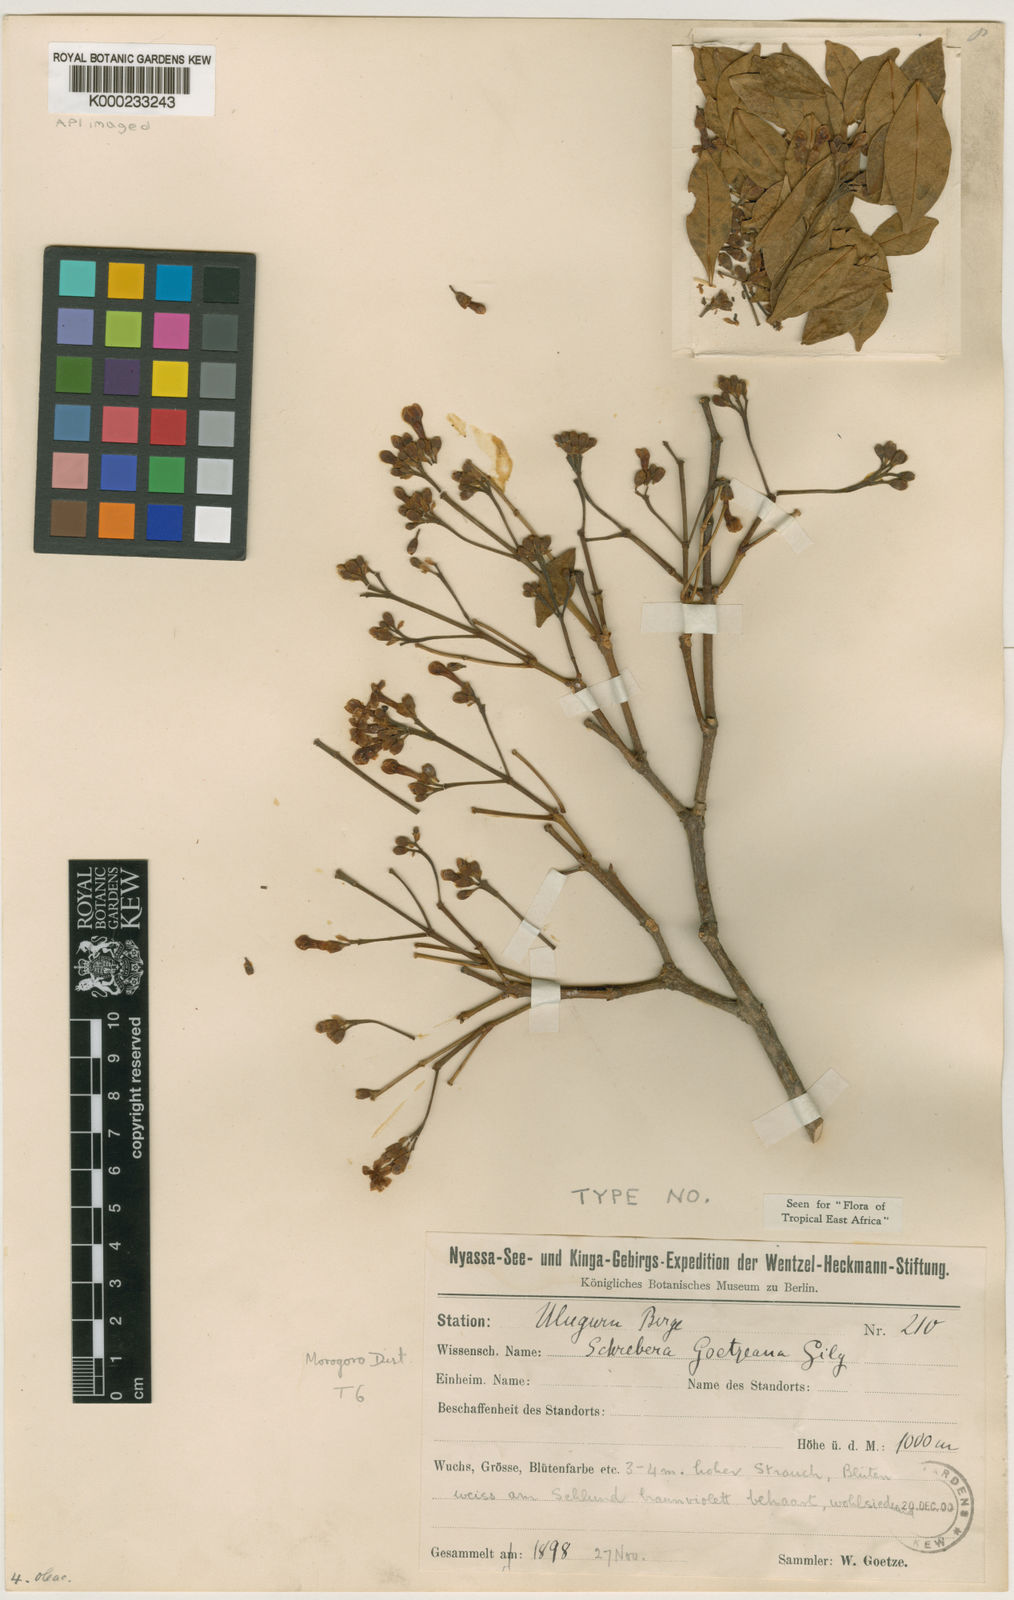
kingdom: Plantae
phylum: Tracheophyta
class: Magnoliopsida
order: Lamiales
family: Oleaceae
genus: Schrebera
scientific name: Schrebera alata
